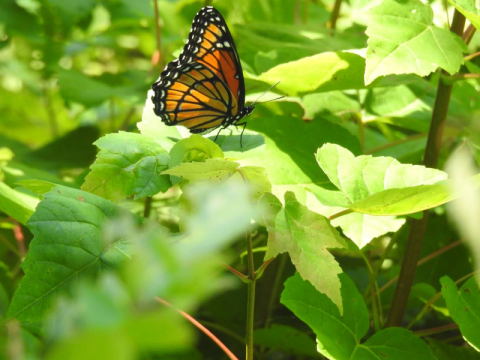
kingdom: Animalia
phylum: Arthropoda
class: Insecta
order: Lepidoptera
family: Nymphalidae
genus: Limenitis
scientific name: Limenitis archippus
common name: Viceroy
